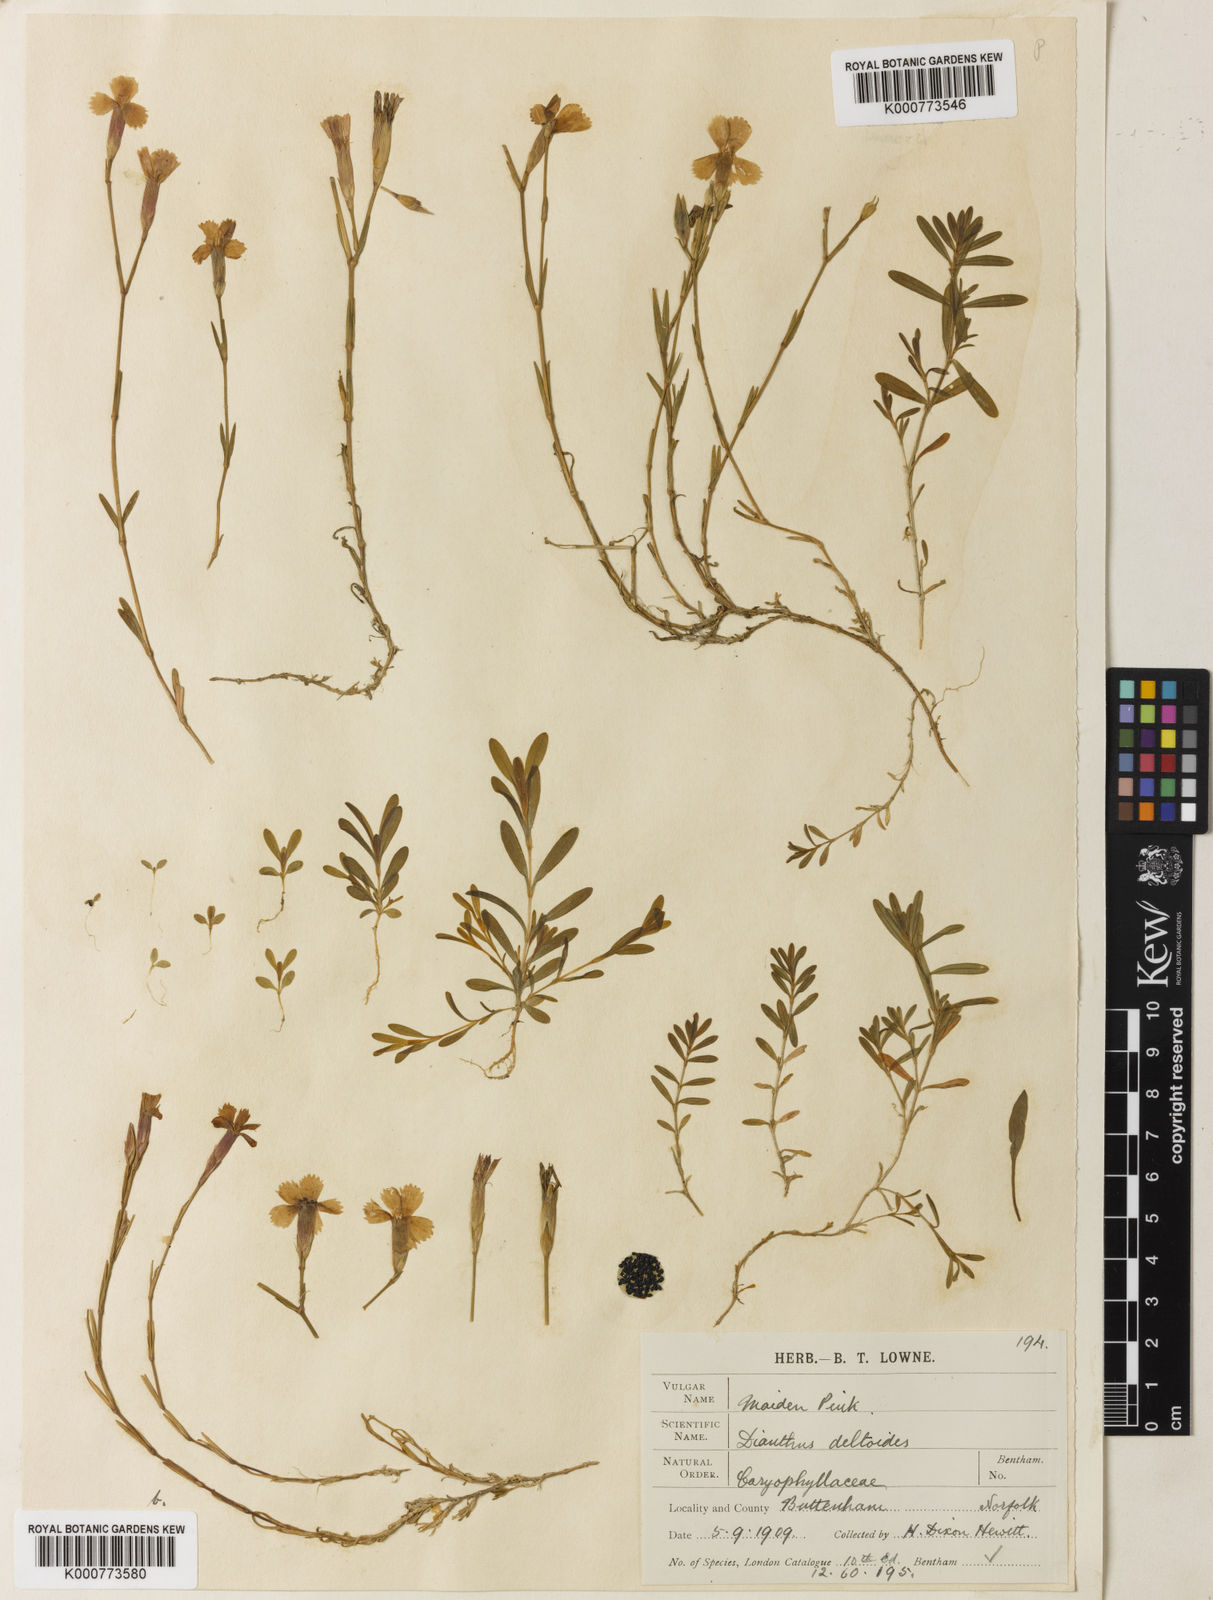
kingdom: Plantae
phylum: Tracheophyta
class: Magnoliopsida
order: Caryophyllales
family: Caryophyllaceae
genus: Dianthus
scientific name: Dianthus deltoides
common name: Maiden pink
